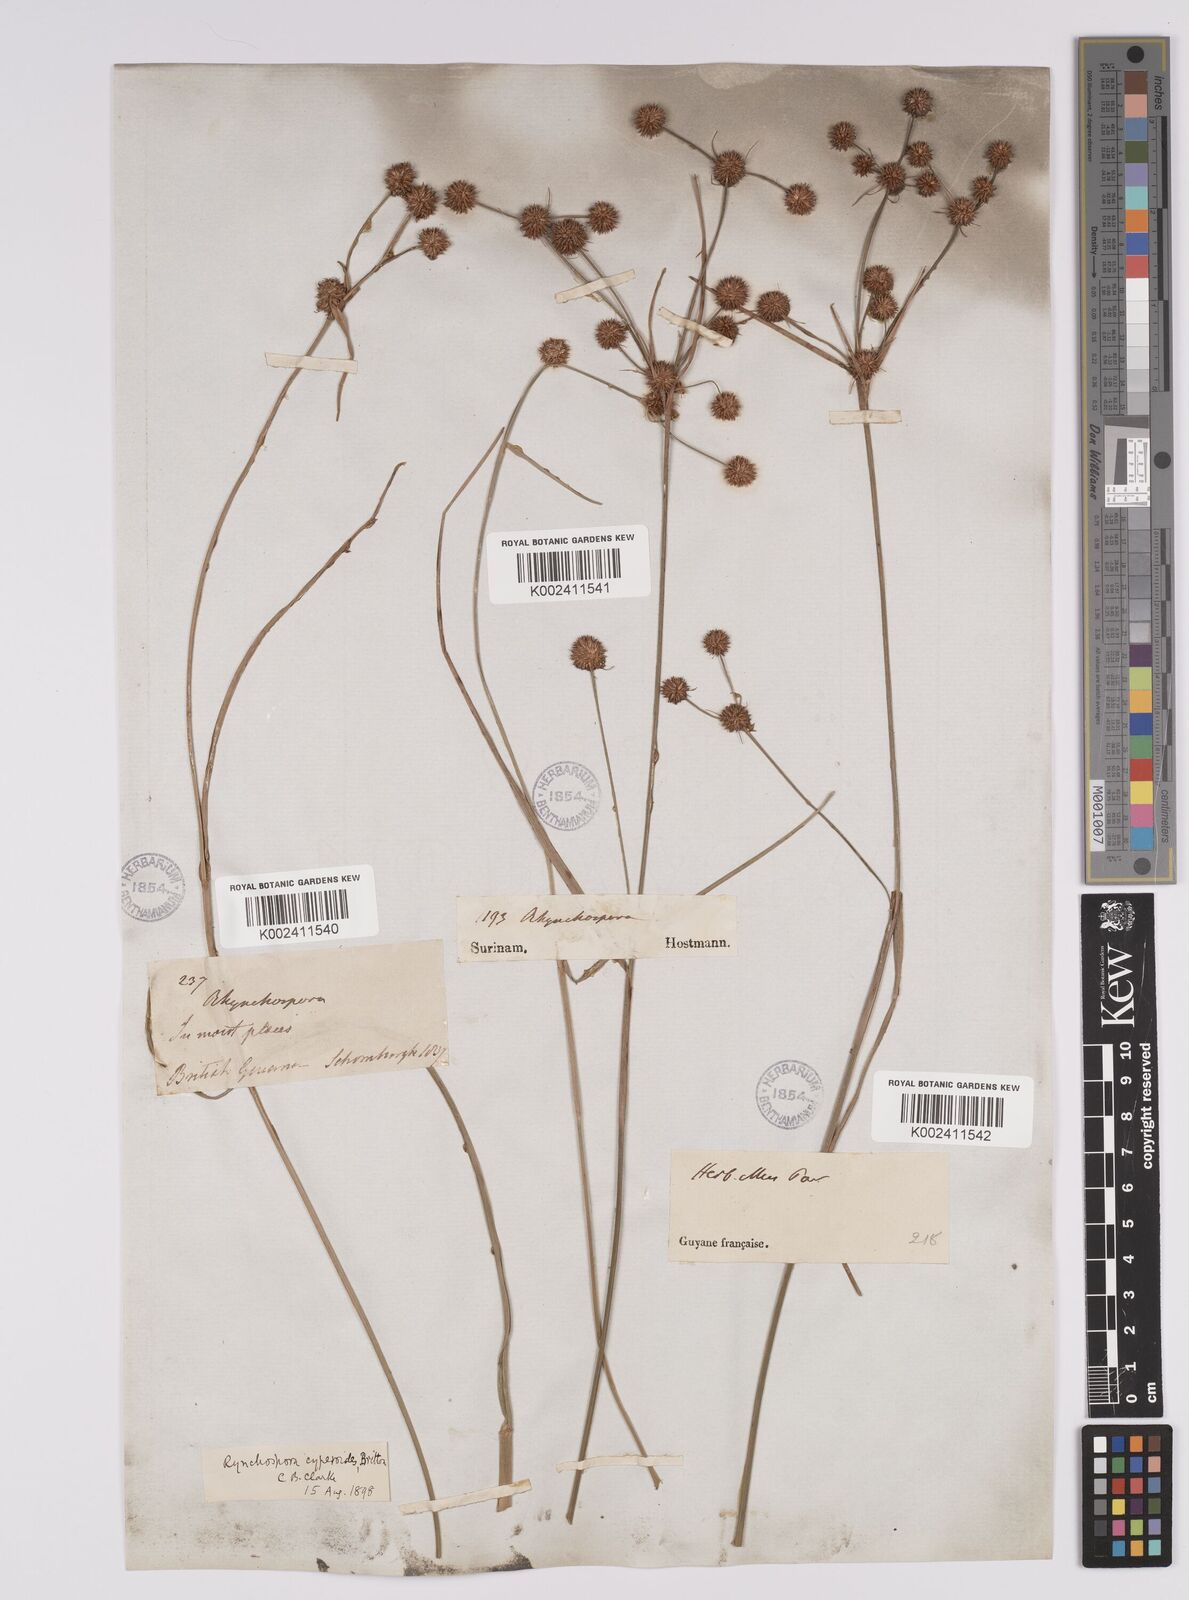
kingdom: Plantae
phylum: Tracheophyta
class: Liliopsida
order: Poales
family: Cyperaceae
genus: Rhynchospora
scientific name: Rhynchospora holoschoenoides
